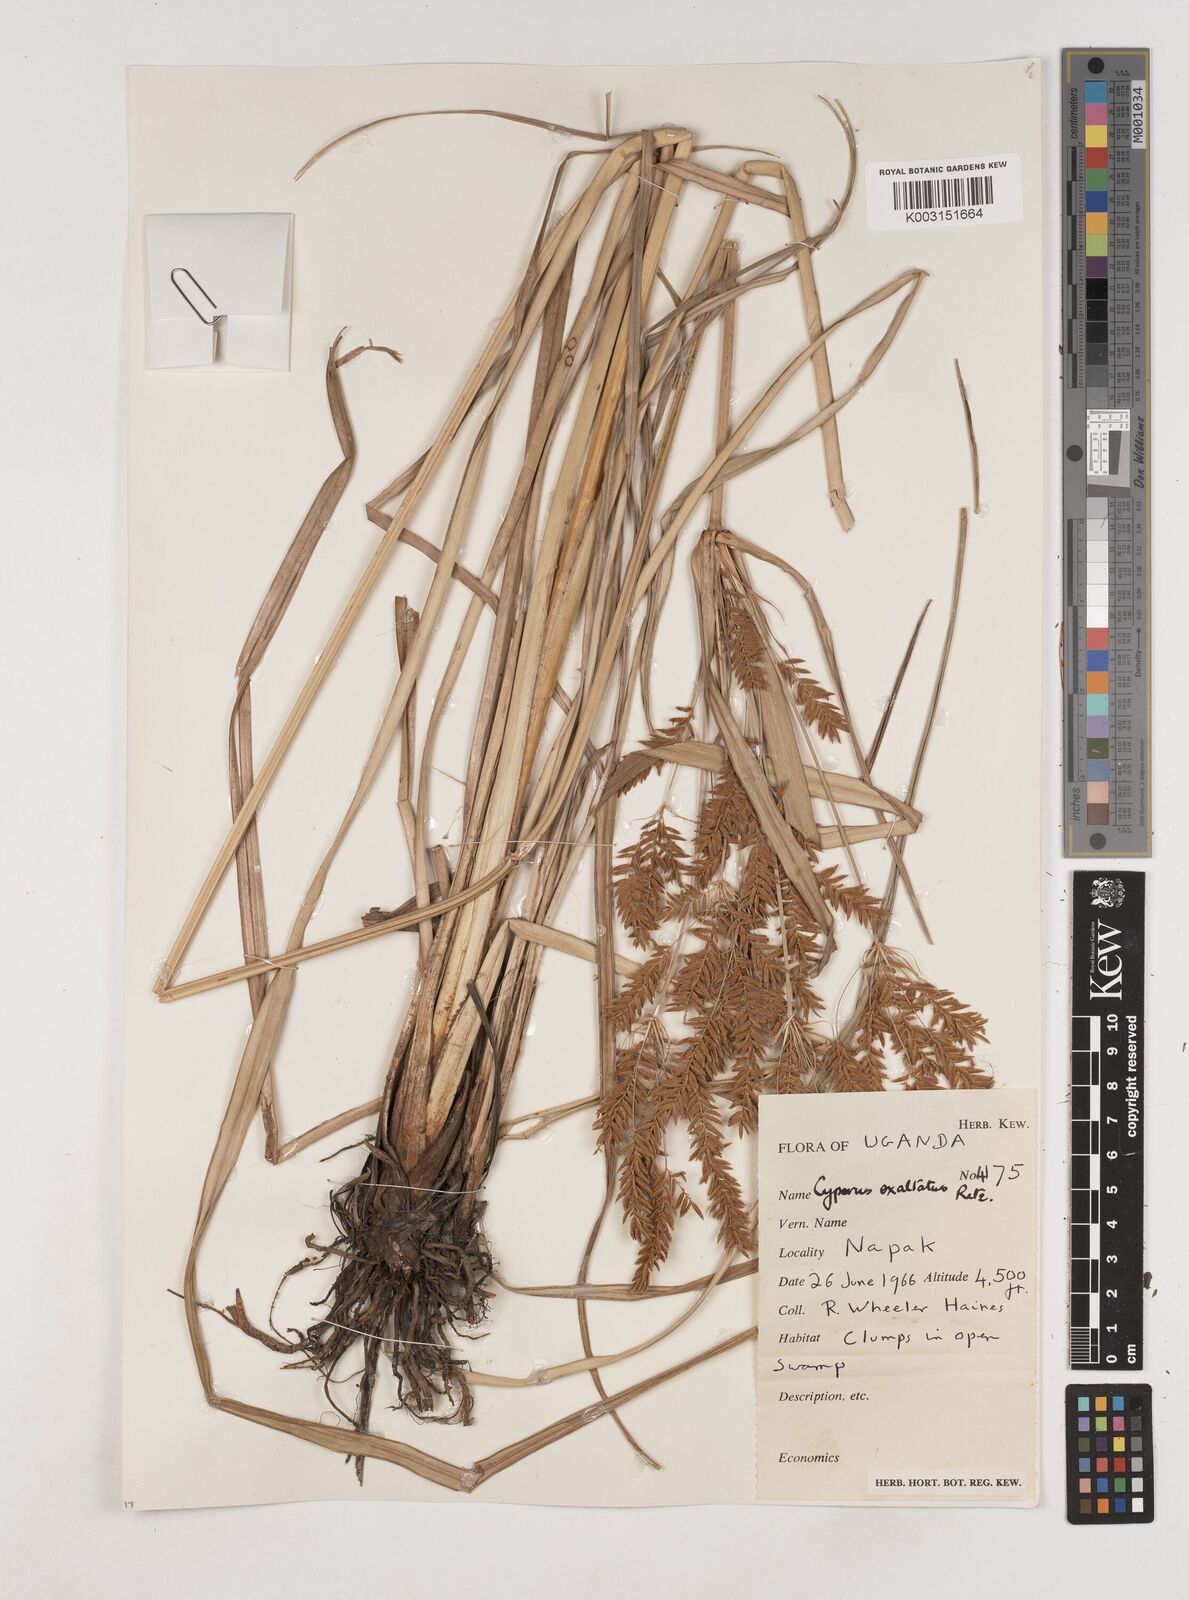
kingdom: Plantae
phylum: Tracheophyta
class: Liliopsida
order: Poales
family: Cyperaceae
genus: Cyperus
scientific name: Cyperus exaltatus
